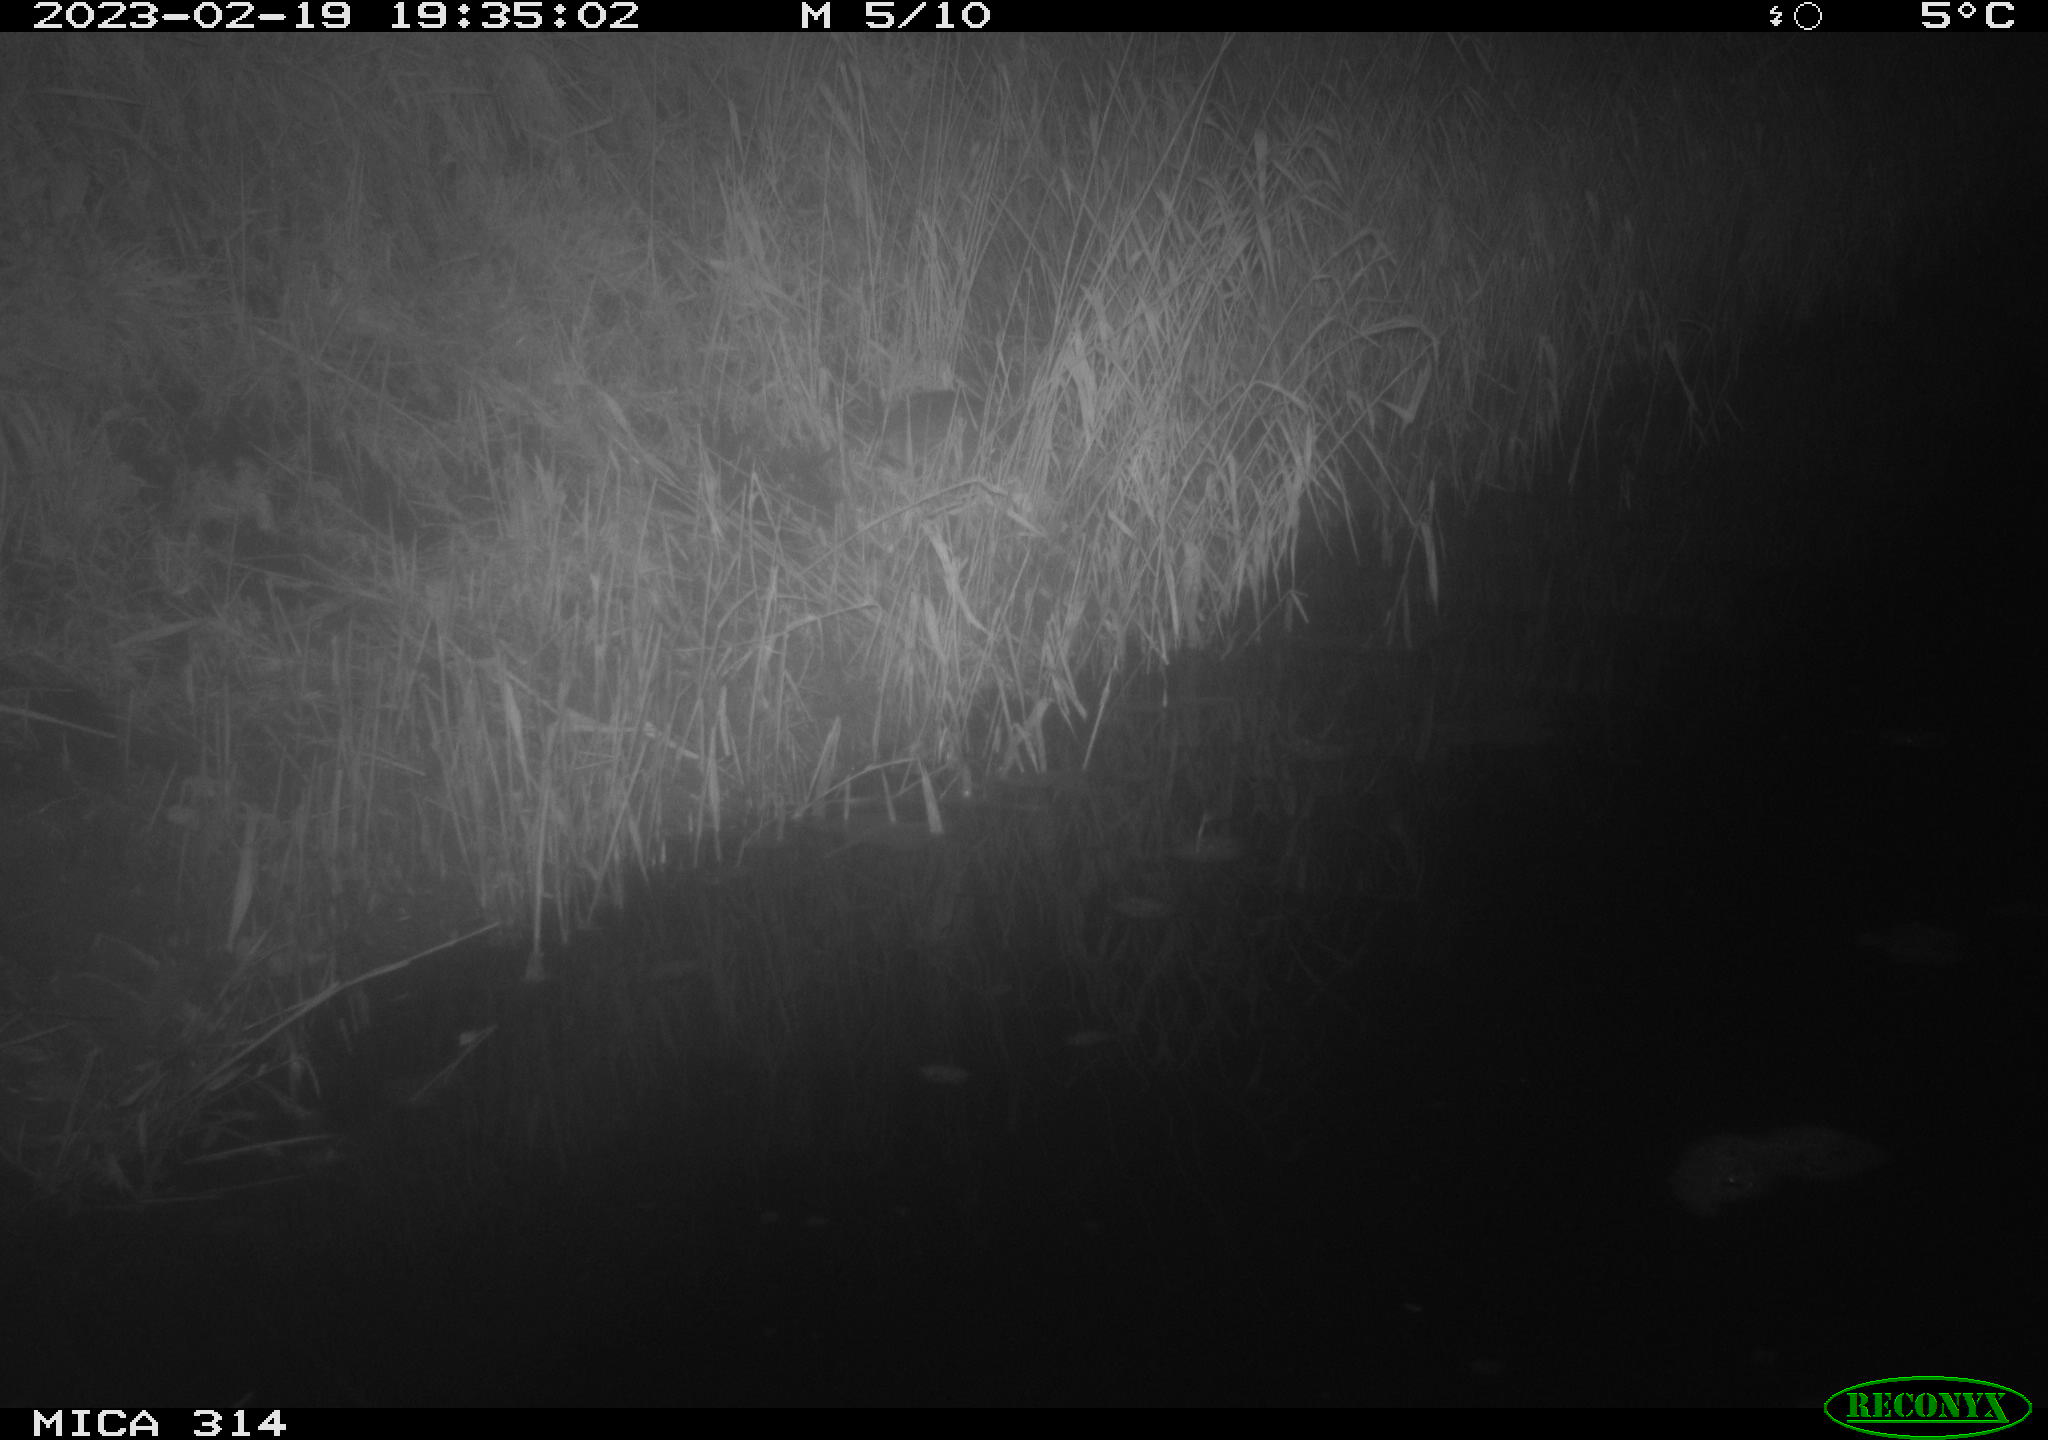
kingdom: Animalia
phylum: Chordata
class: Mammalia
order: Rodentia
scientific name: Rodentia
